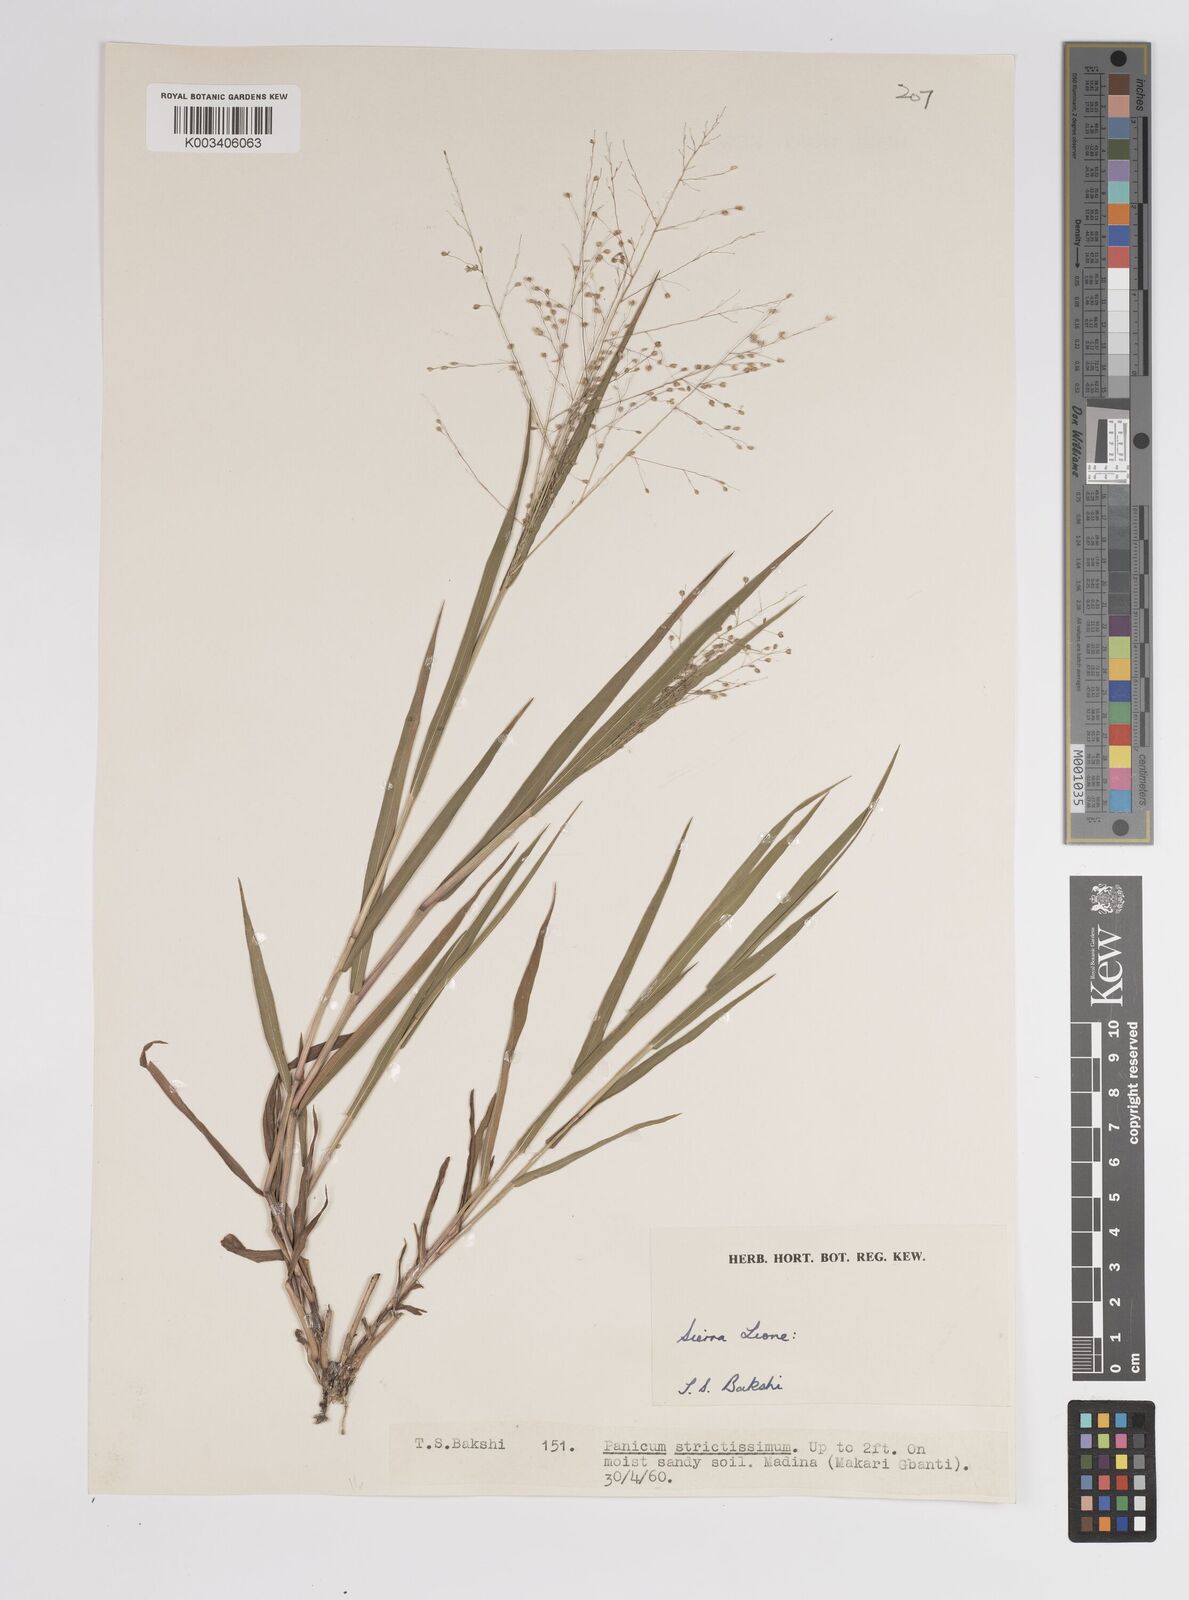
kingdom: Plantae
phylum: Tracheophyta
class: Liliopsida
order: Poales
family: Poaceae
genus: Panicum
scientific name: Panicum eickii
